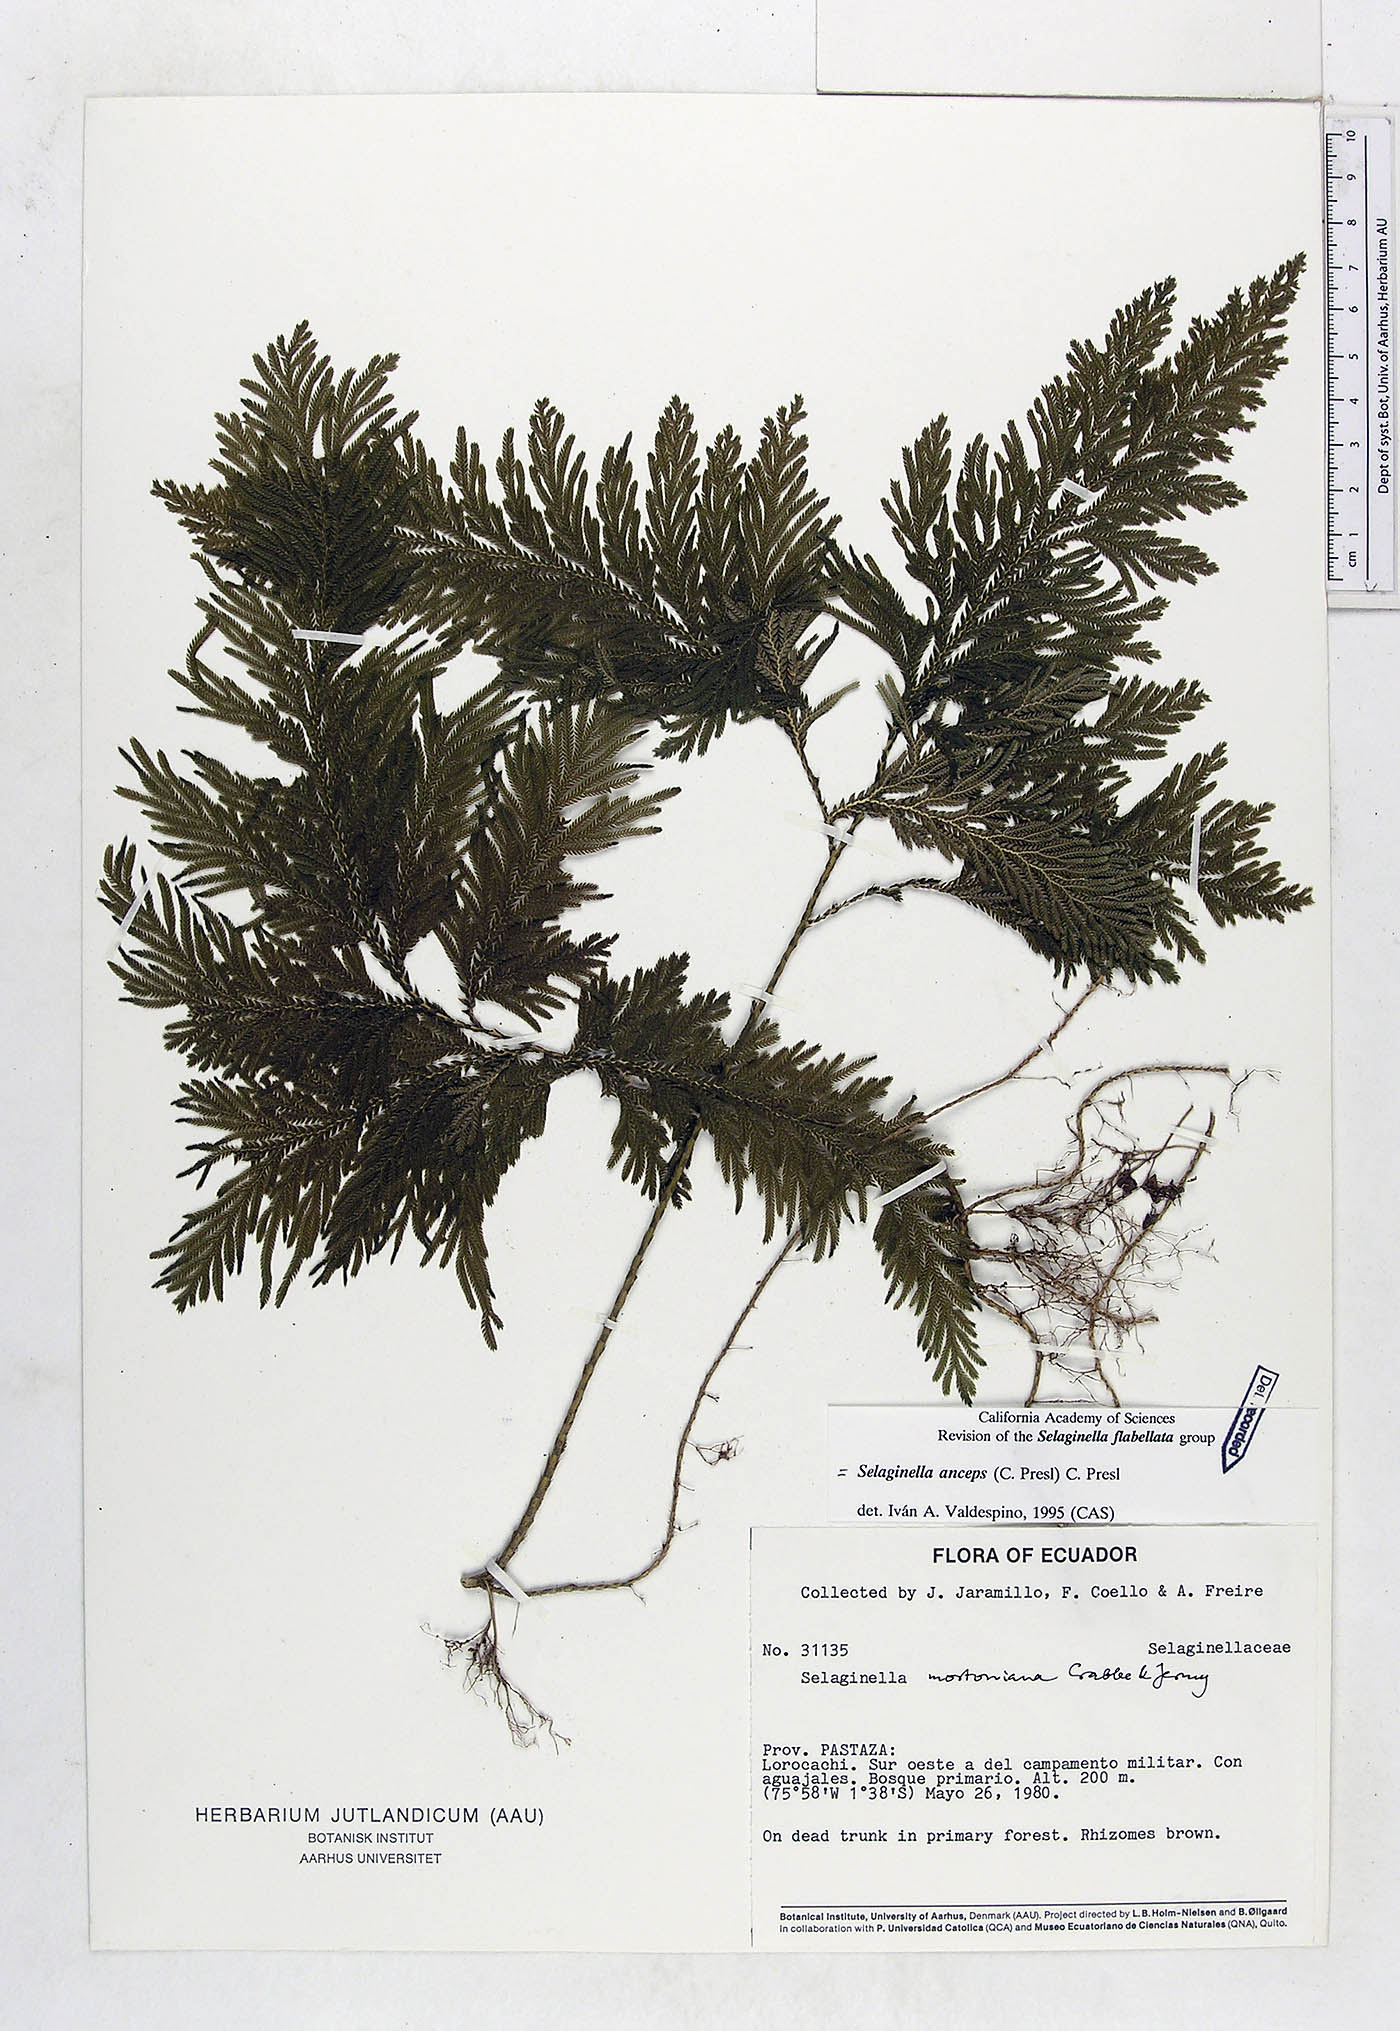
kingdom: Plantae
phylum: Tracheophyta
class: Lycopodiopsida
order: Selaginellales
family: Selaginellaceae
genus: Selaginella
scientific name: Selaginella anceps
